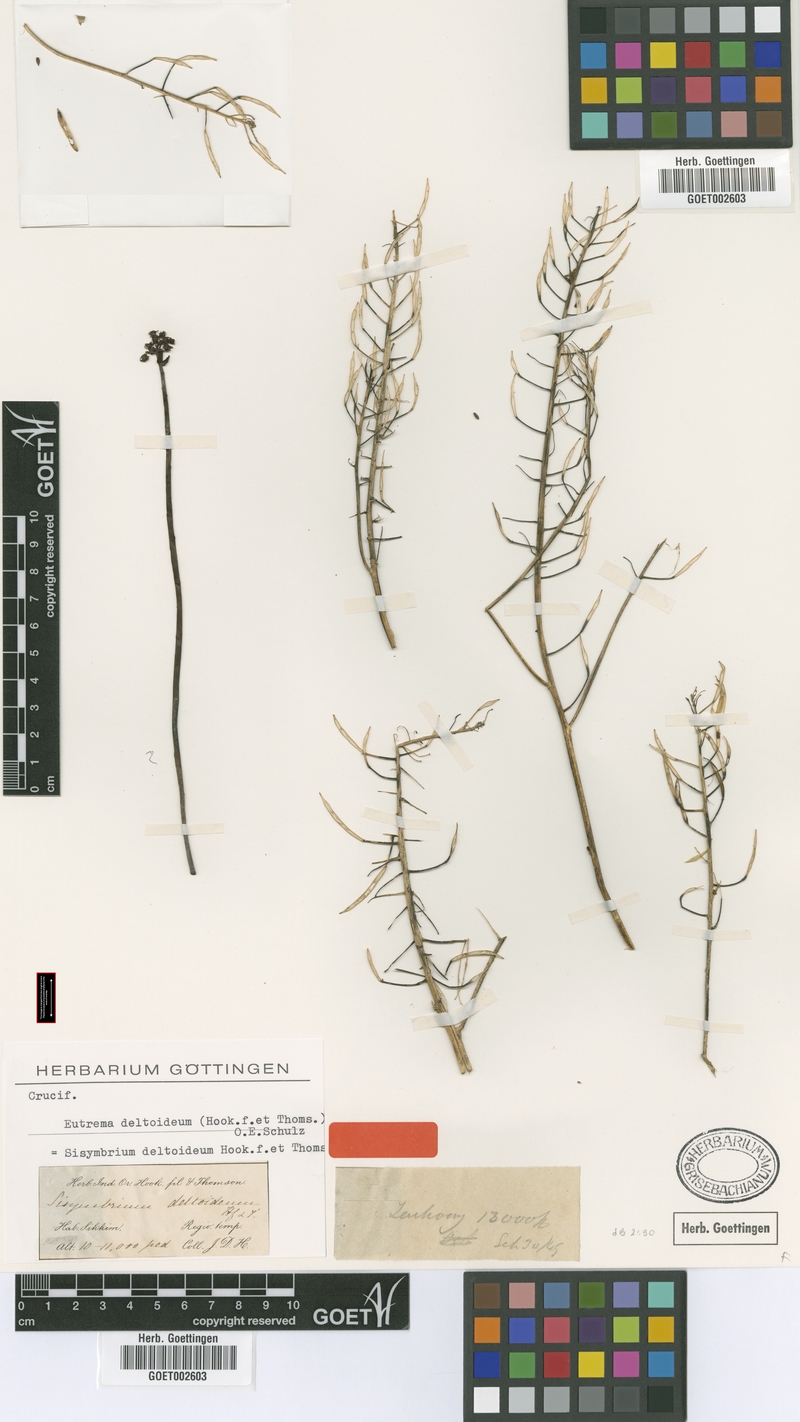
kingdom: Plantae
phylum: Tracheophyta
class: Magnoliopsida
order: Brassicales
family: Brassicaceae
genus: Eutrema
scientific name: Eutrema deltoideum
